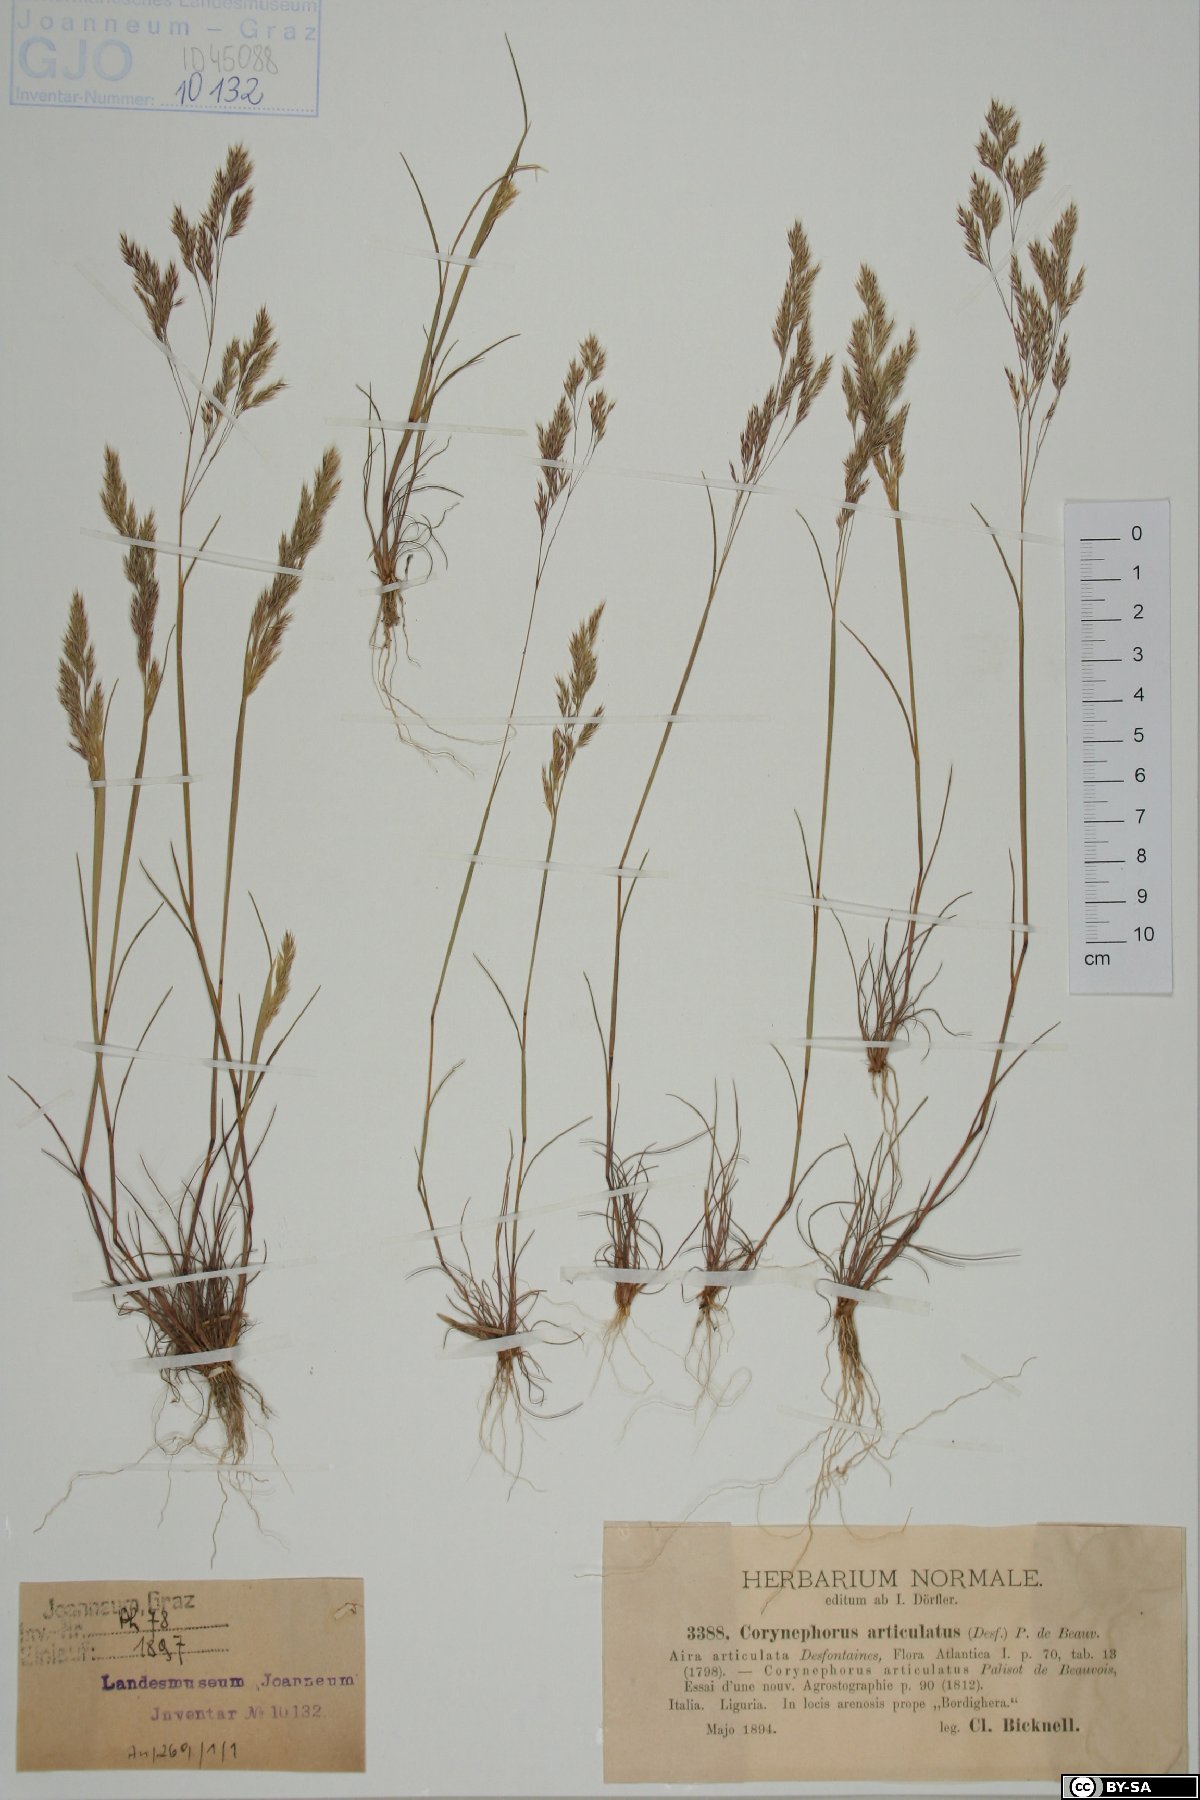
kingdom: Plantae
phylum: Tracheophyta
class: Liliopsida
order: Poales
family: Poaceae
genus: Corynephorus
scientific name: Corynephorus articulatus
